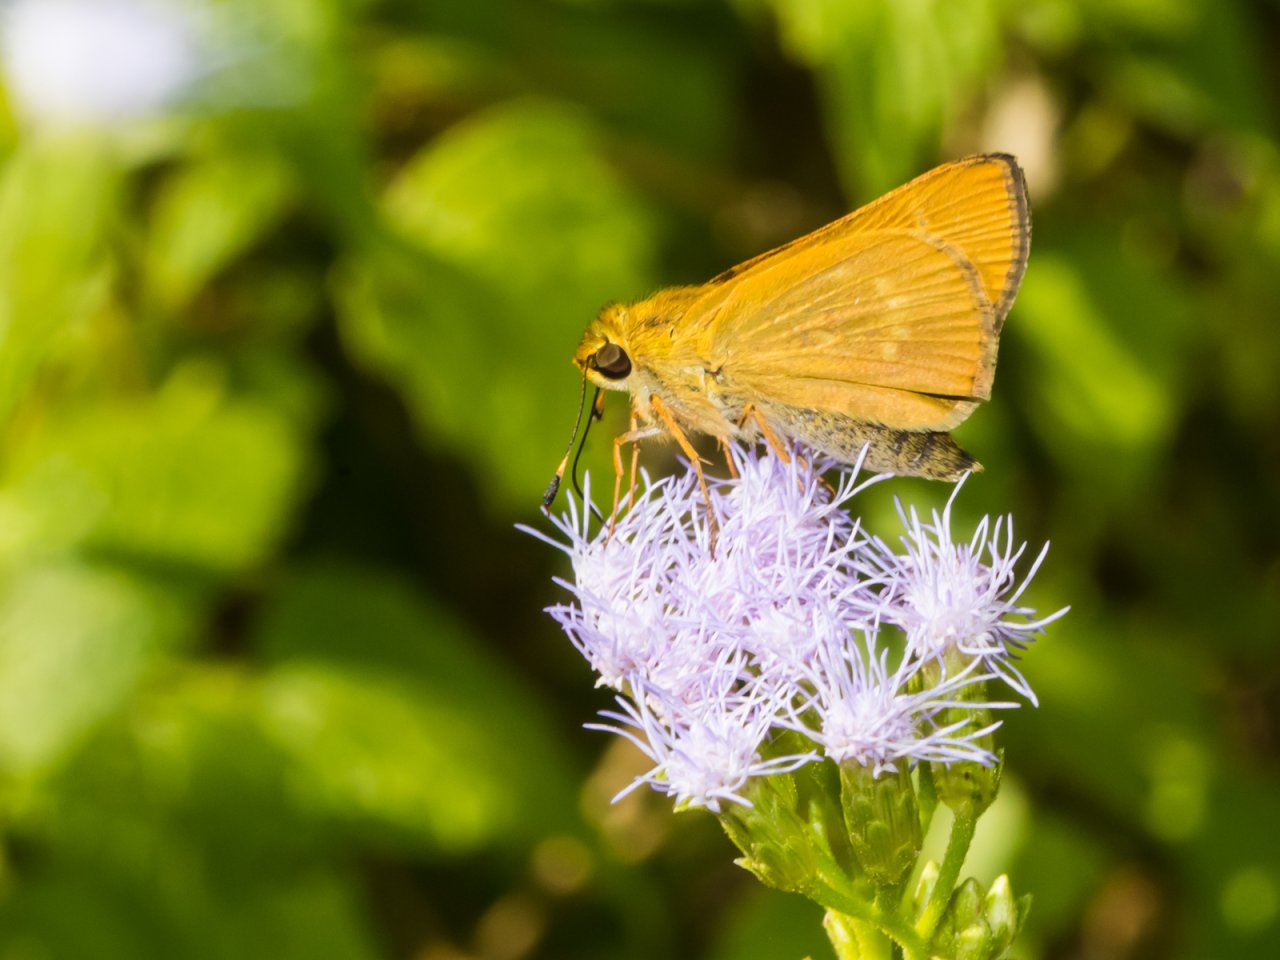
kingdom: Animalia
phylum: Arthropoda
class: Insecta
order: Lepidoptera
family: Hesperiidae
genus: Mellana
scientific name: Mellana eulogius
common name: Common Mellana
